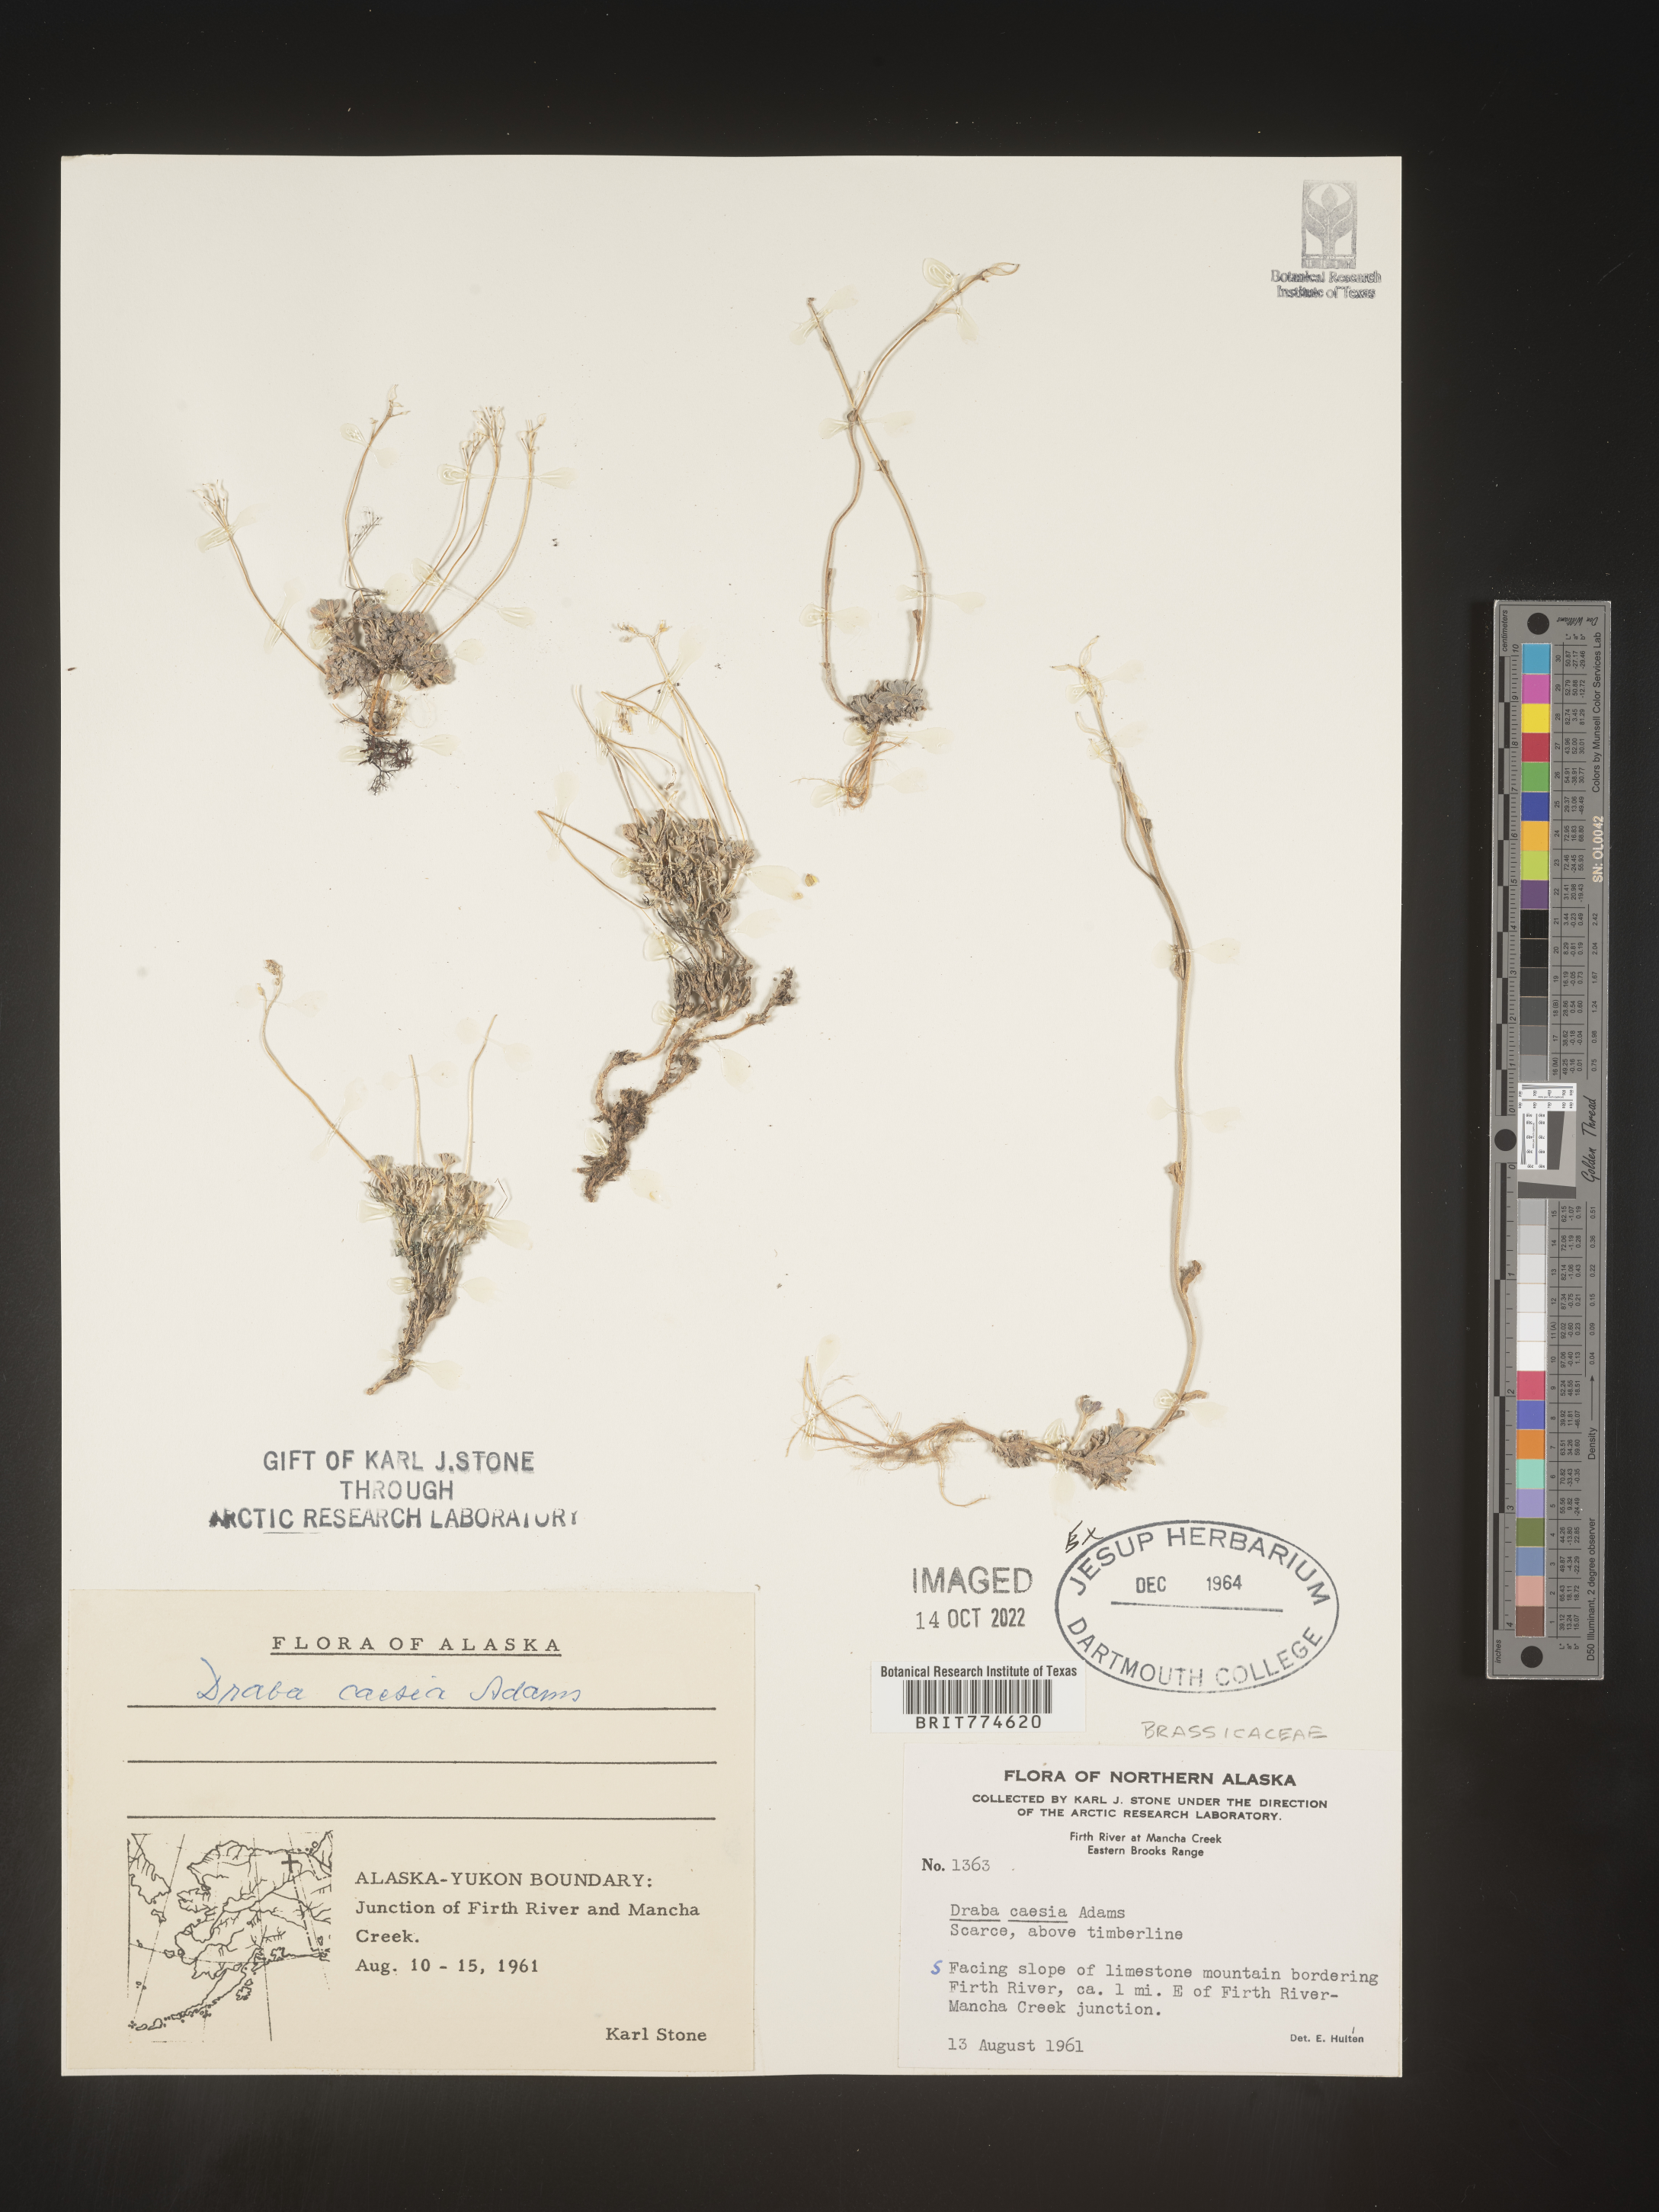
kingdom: Plantae
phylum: Tracheophyta
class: Magnoliopsida
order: Brassicales
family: Brassicaceae
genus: Draba
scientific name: Draba
